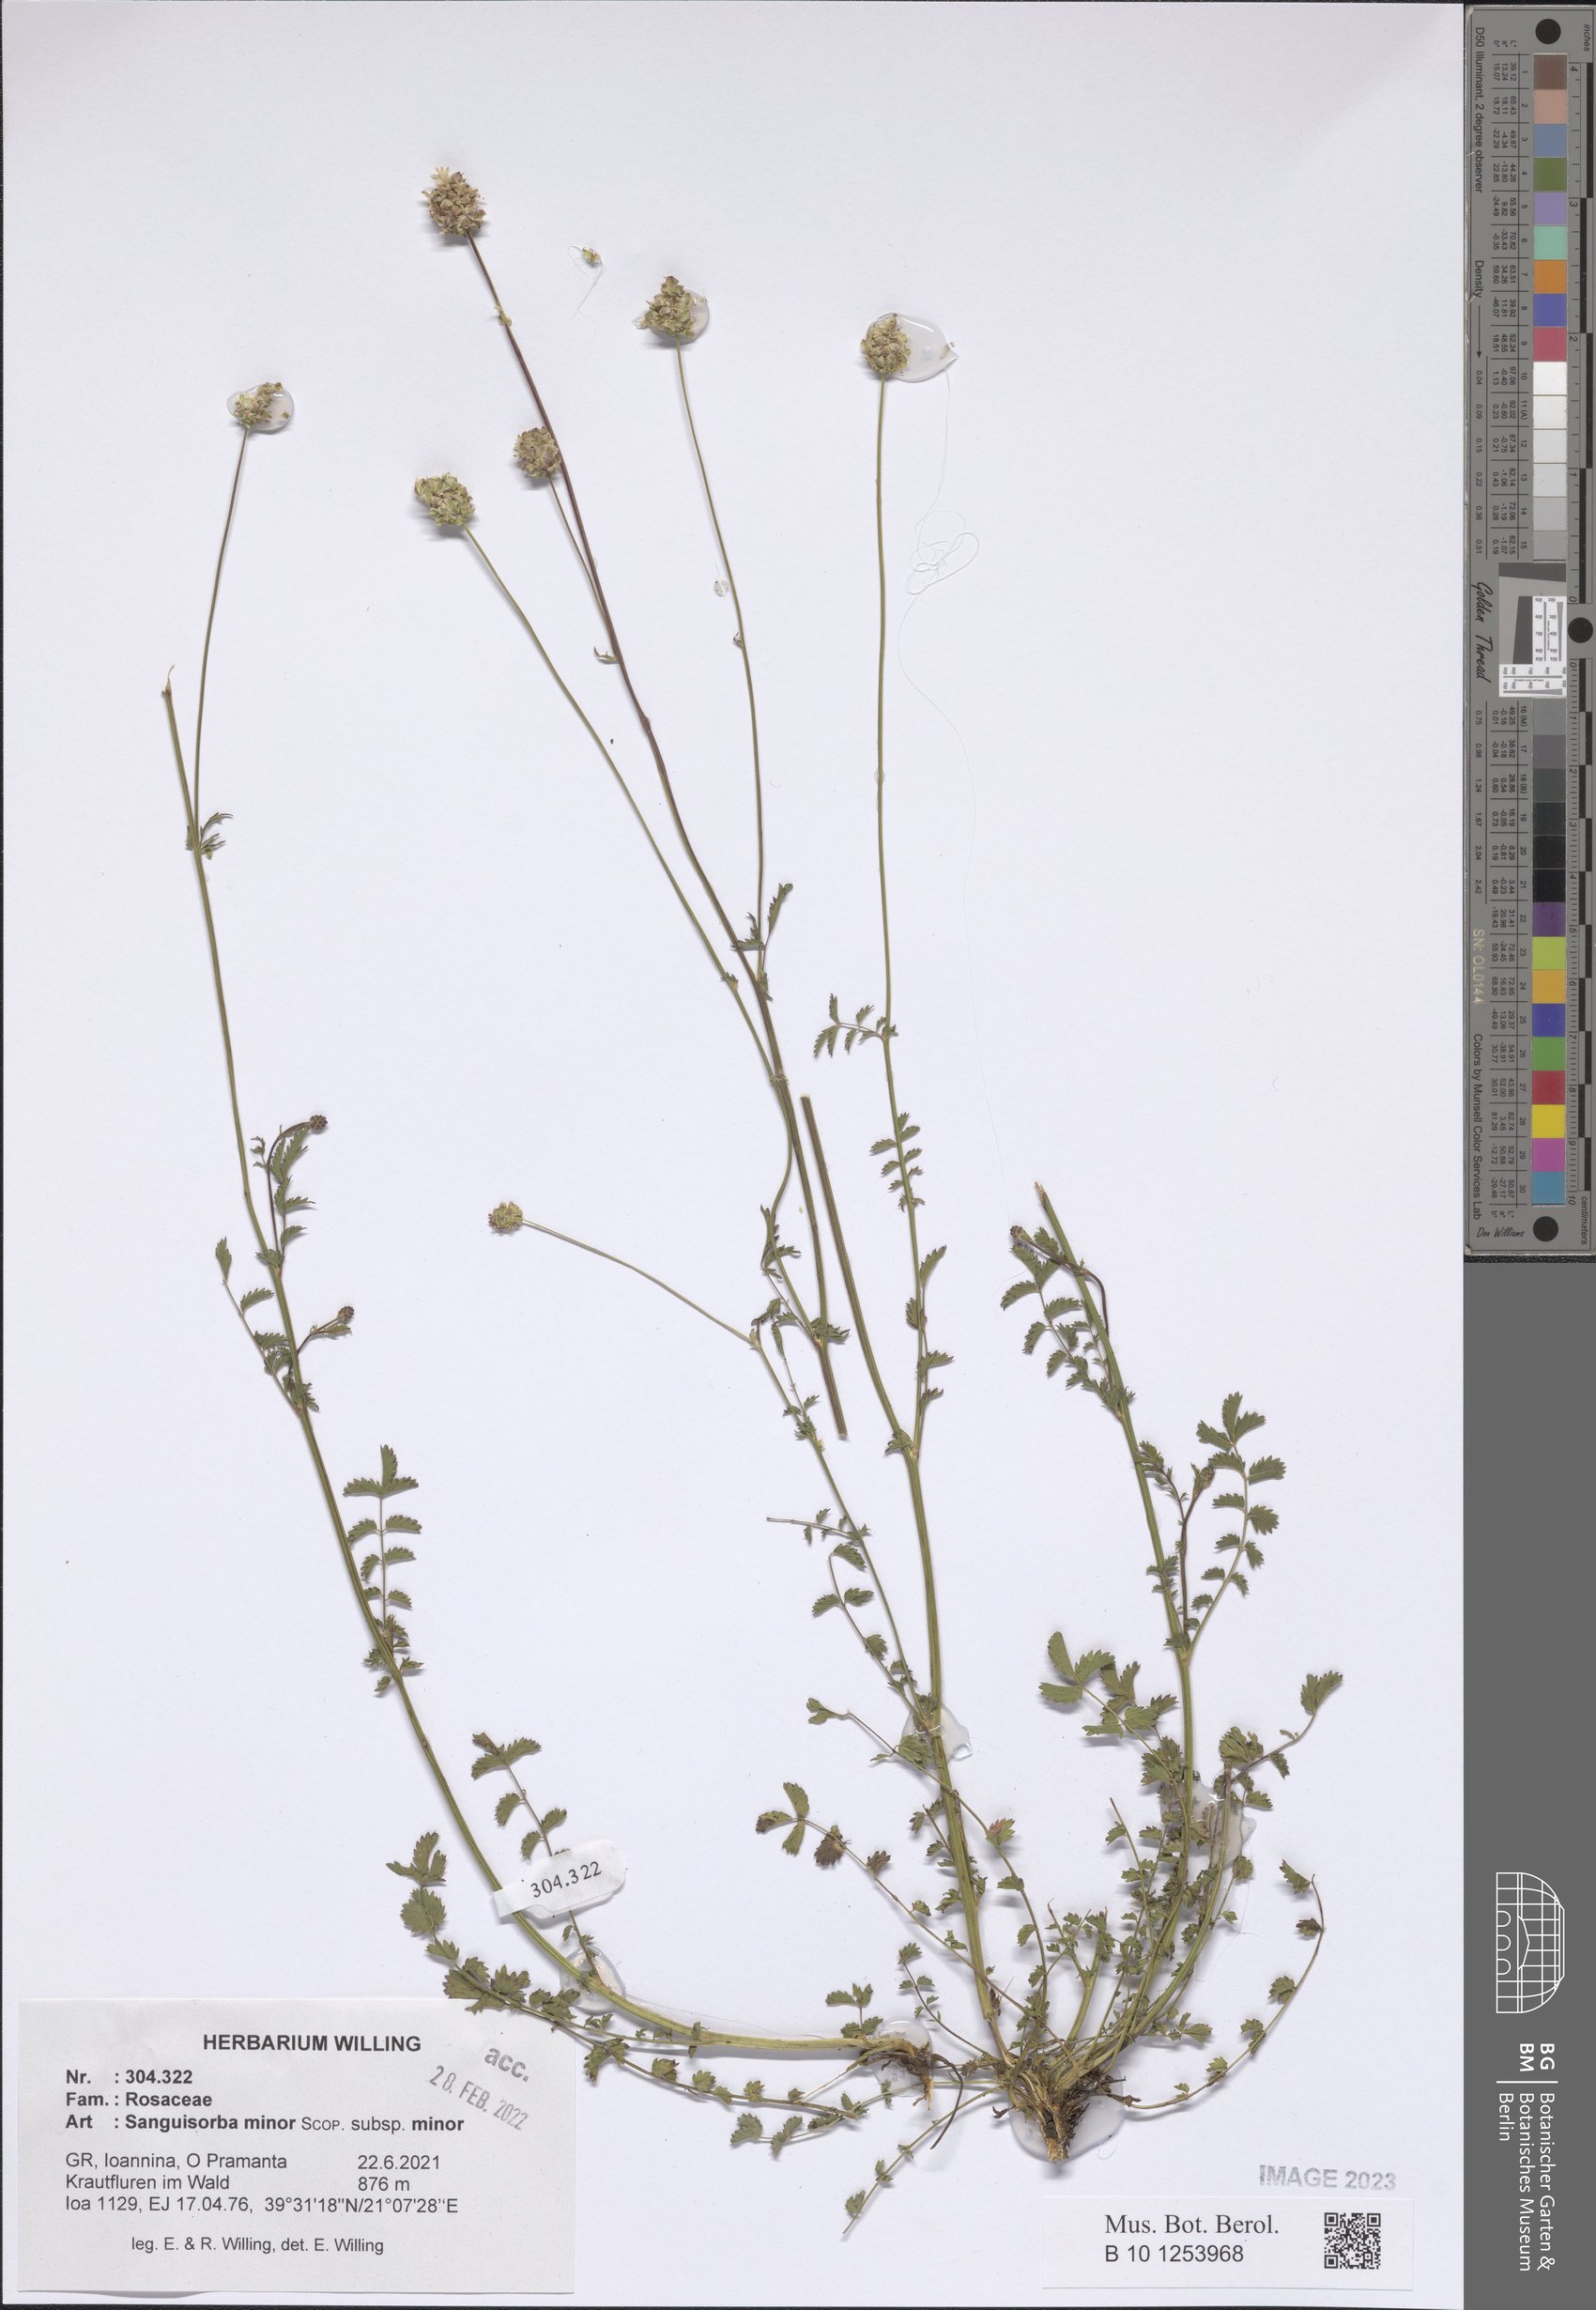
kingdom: Plantae
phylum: Tracheophyta
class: Magnoliopsida
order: Rosales
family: Rosaceae
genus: Poterium
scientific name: Poterium sanguisorba
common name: Salad burnet
